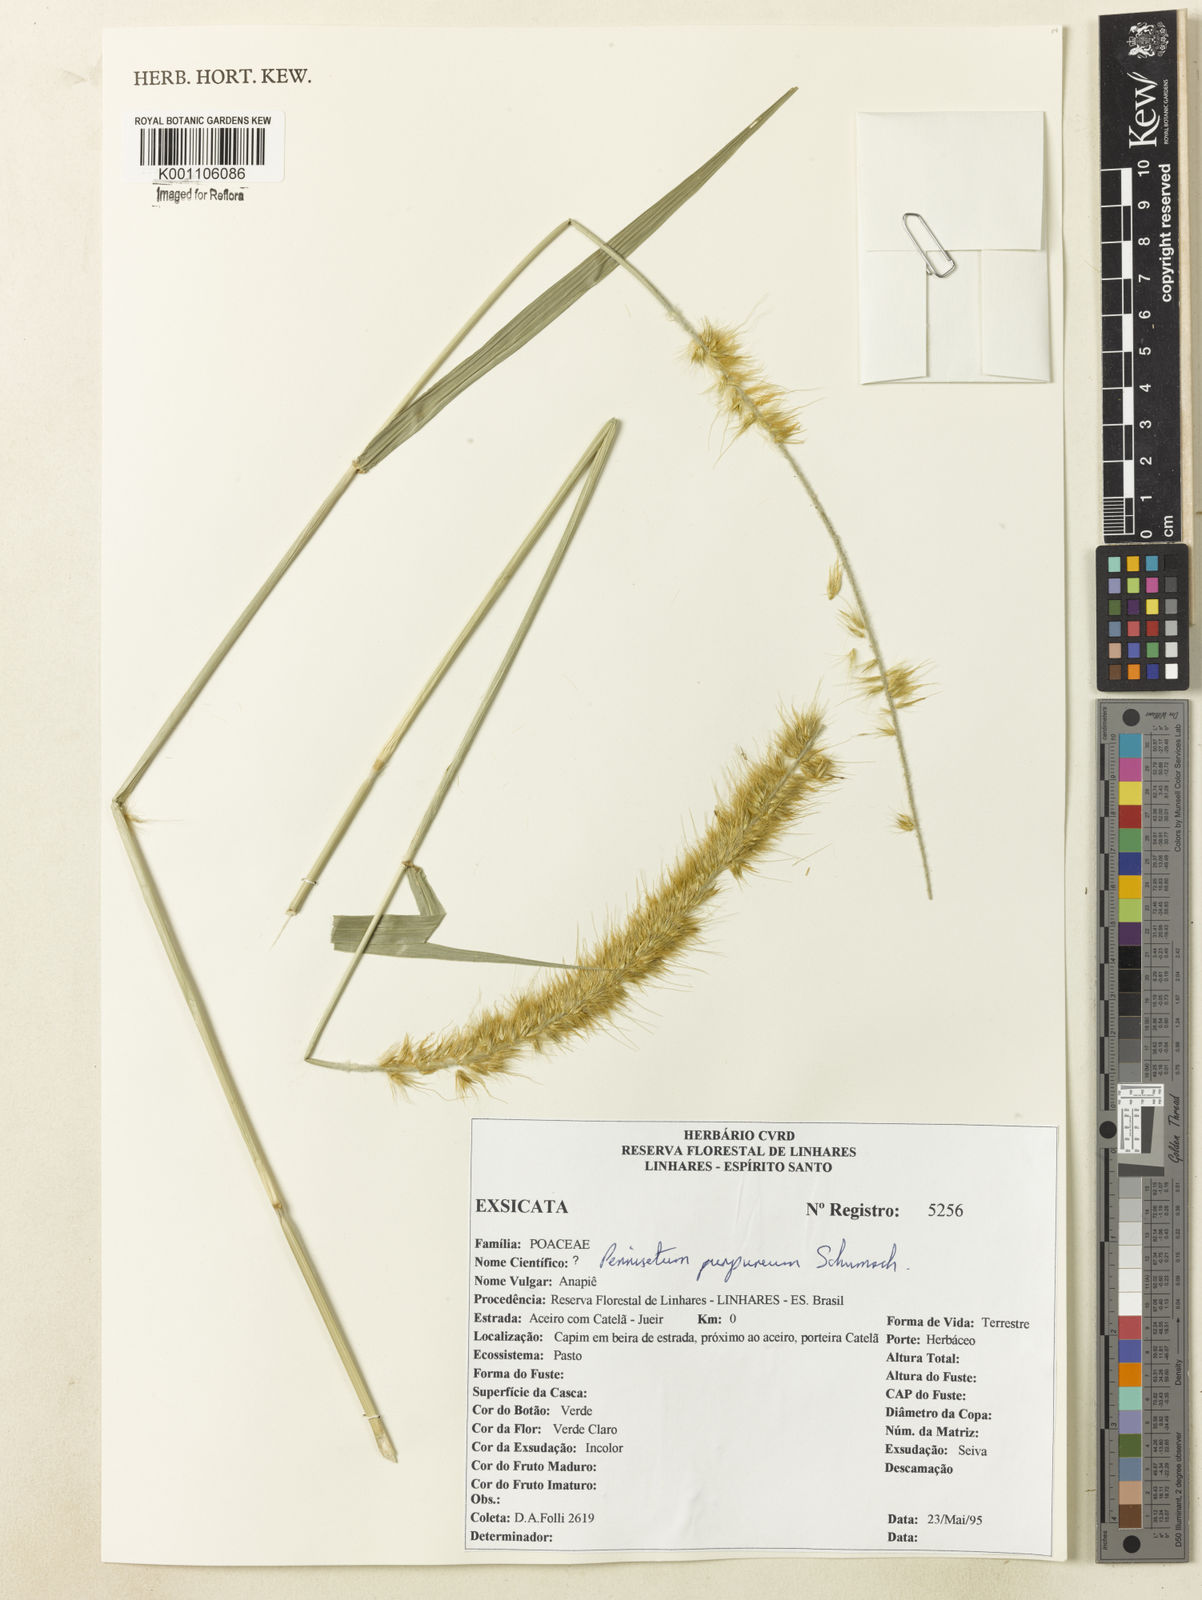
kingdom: Plantae
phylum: Tracheophyta
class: Liliopsida
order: Poales
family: Poaceae
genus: Cenchrus
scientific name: Cenchrus purpureus
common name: Elephant grass
